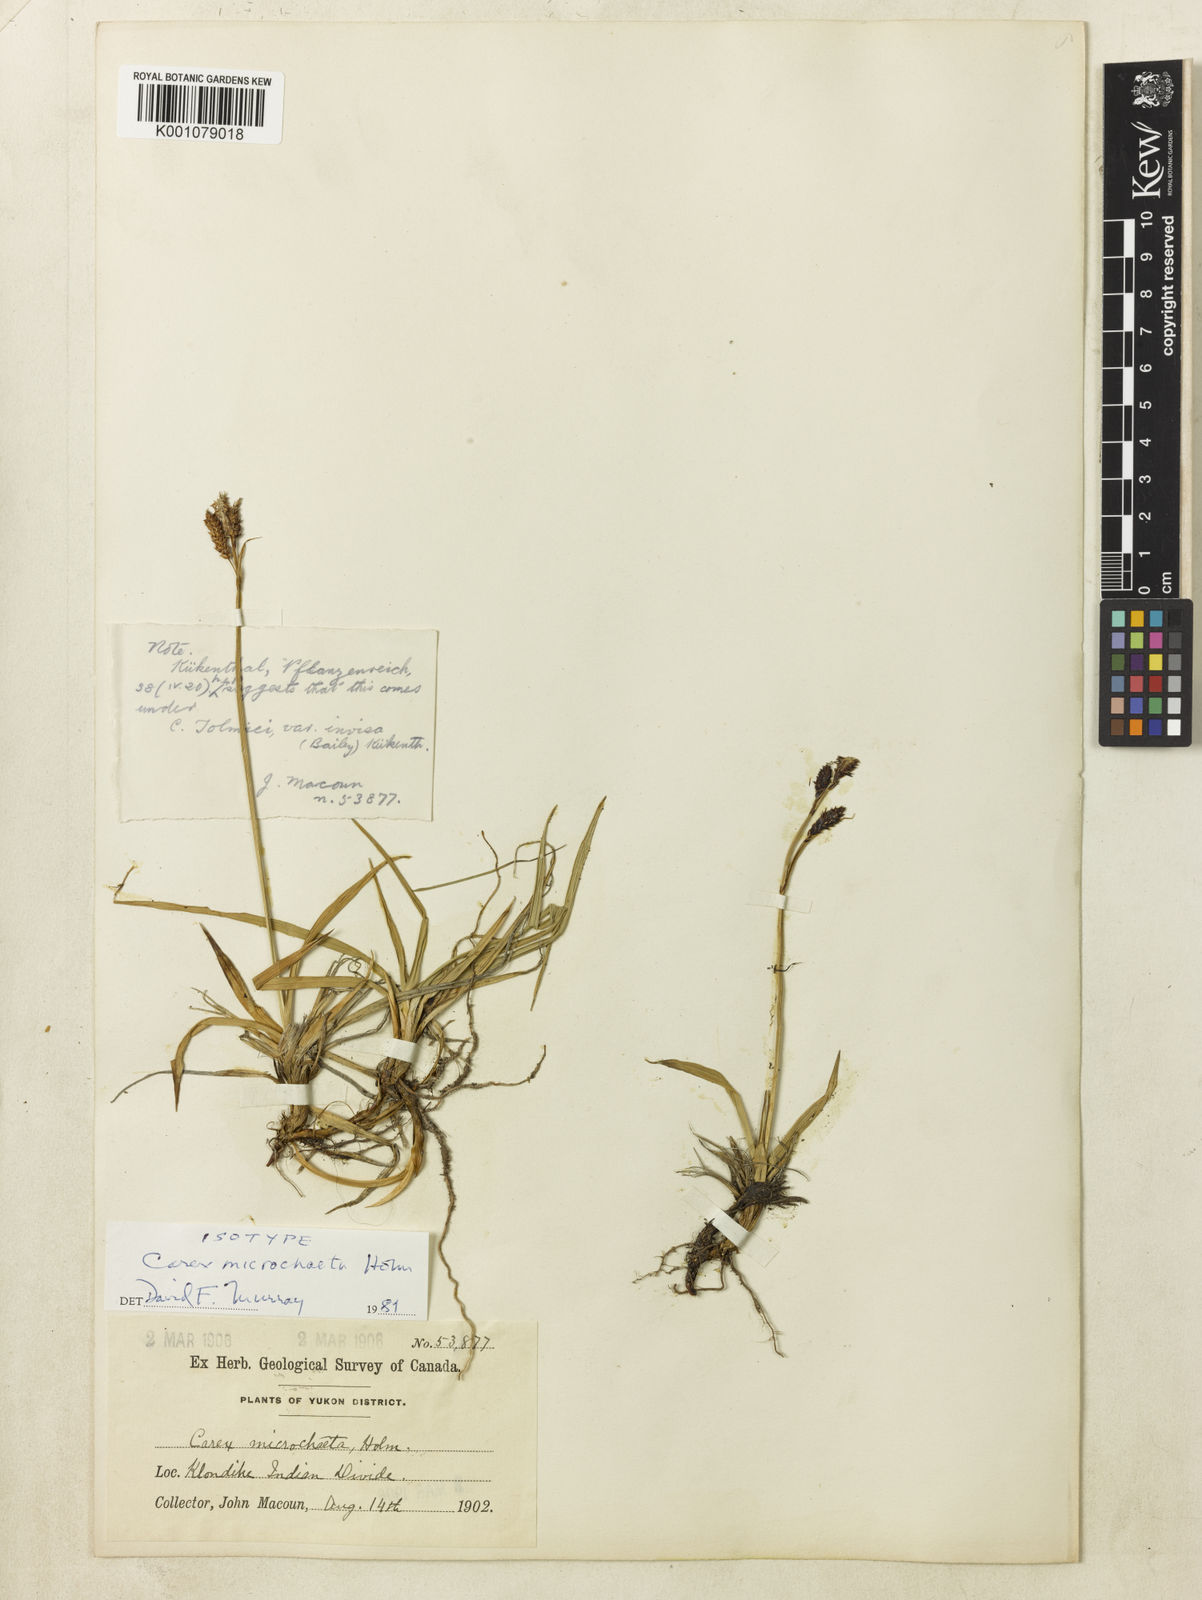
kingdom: Plantae
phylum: Tracheophyta
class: Liliopsida
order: Poales
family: Cyperaceae
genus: Carex
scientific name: Carex podocarpa
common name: Alpine sedge
